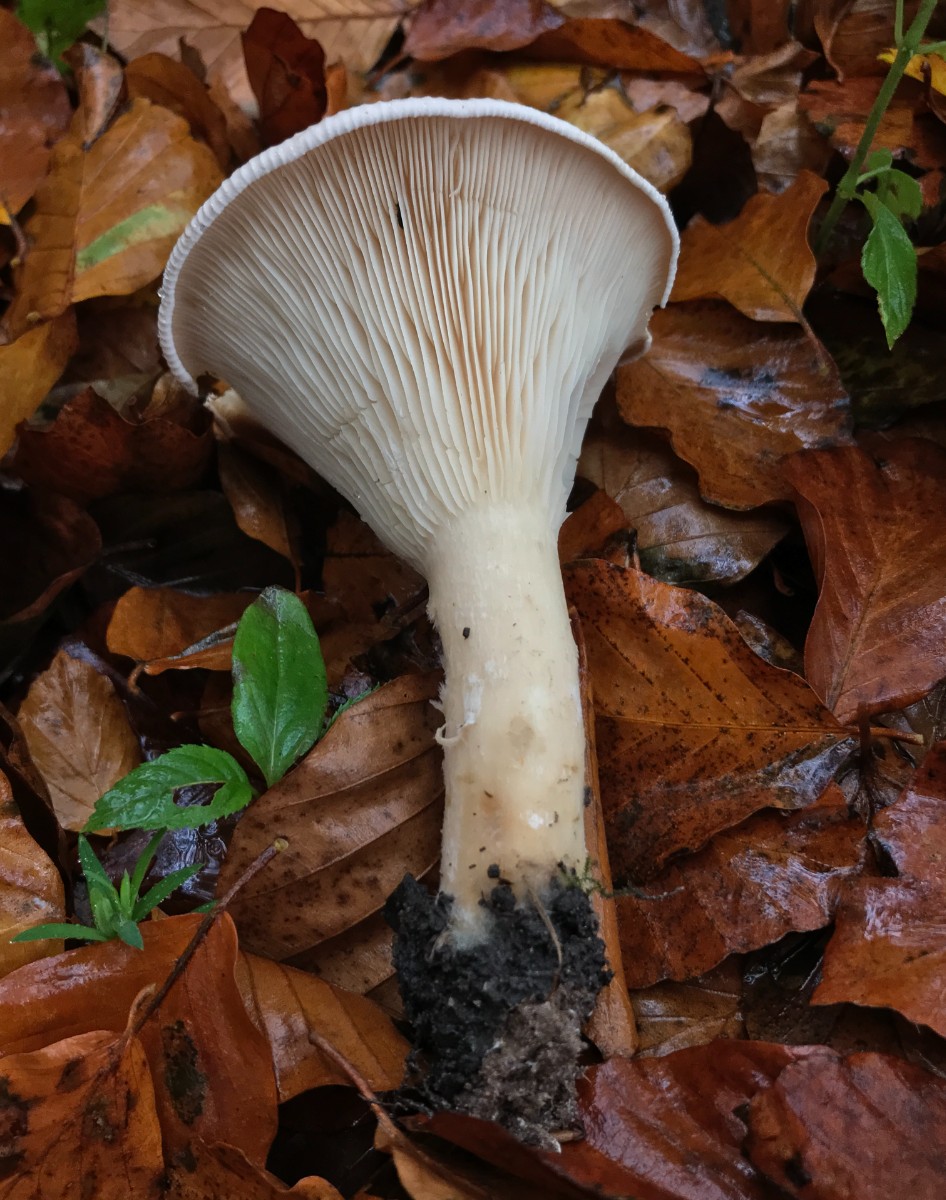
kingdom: Fungi
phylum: Basidiomycota
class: Agaricomycetes
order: Agaricales
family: Tricholomataceae
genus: Infundibulicybe
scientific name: Infundibulicybe geotropa
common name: stor tragthat
